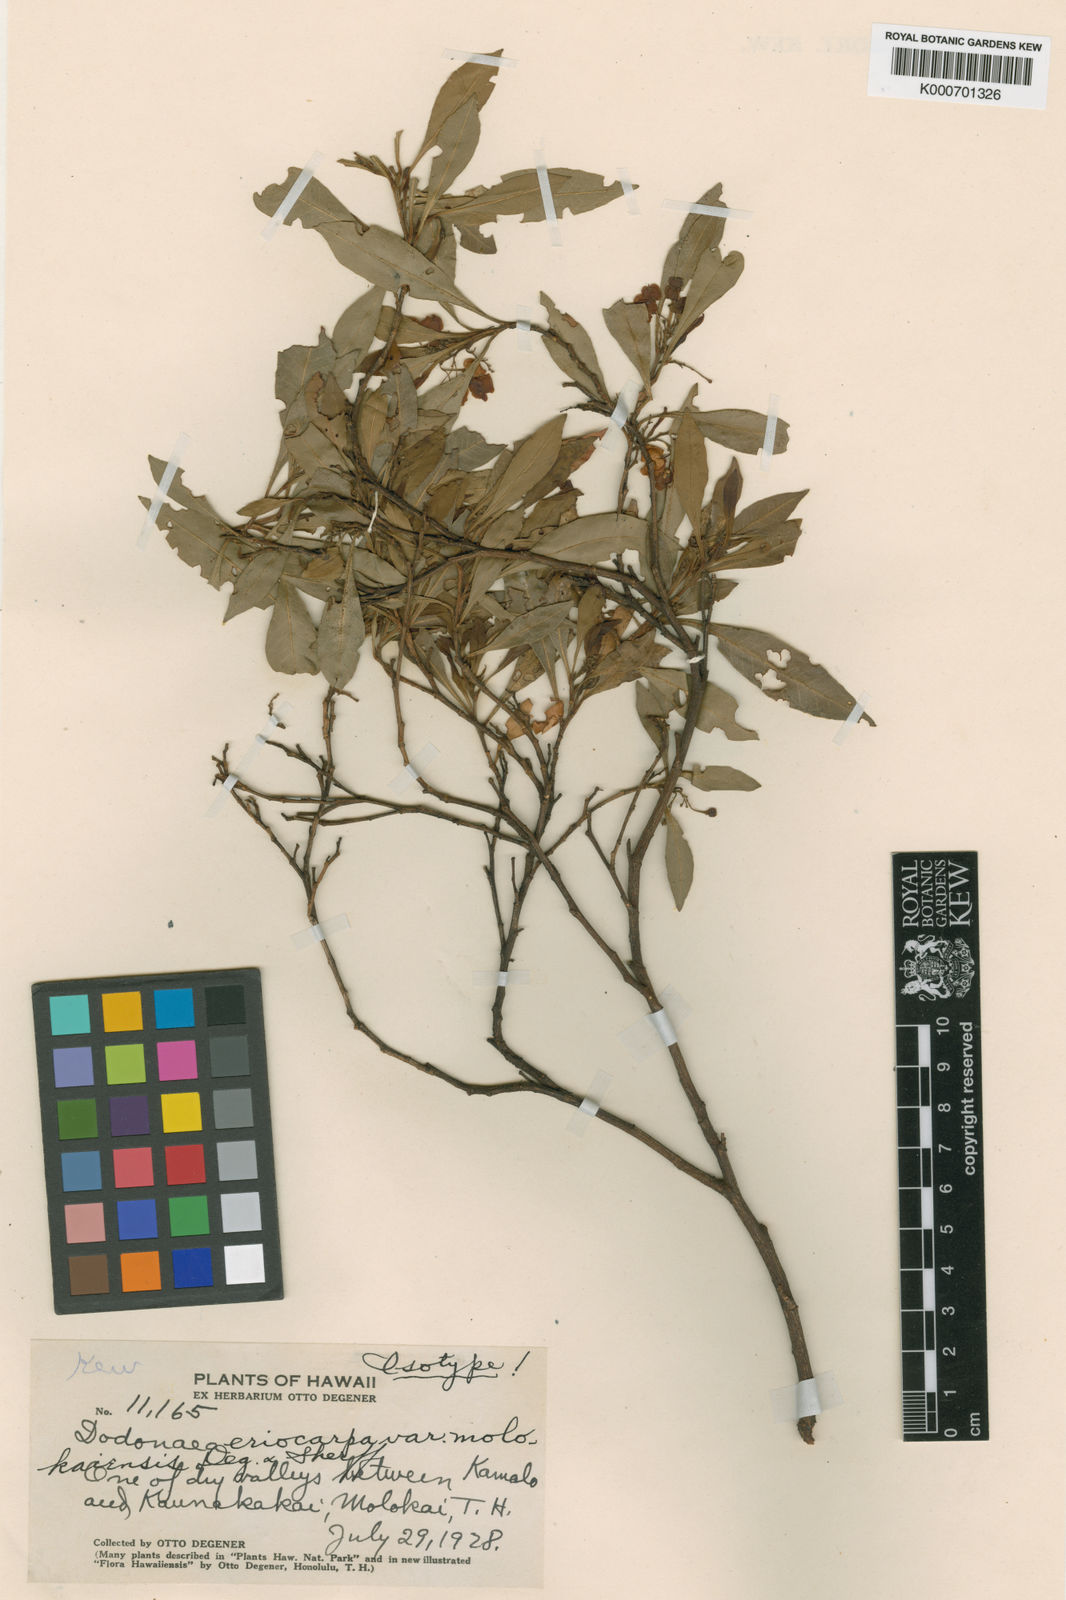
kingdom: Plantae
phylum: Tracheophyta
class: Magnoliopsida
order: Sapindales
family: Sapindaceae
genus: Dodonaea
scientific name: Dodonaea viscosa
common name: Hopbush
